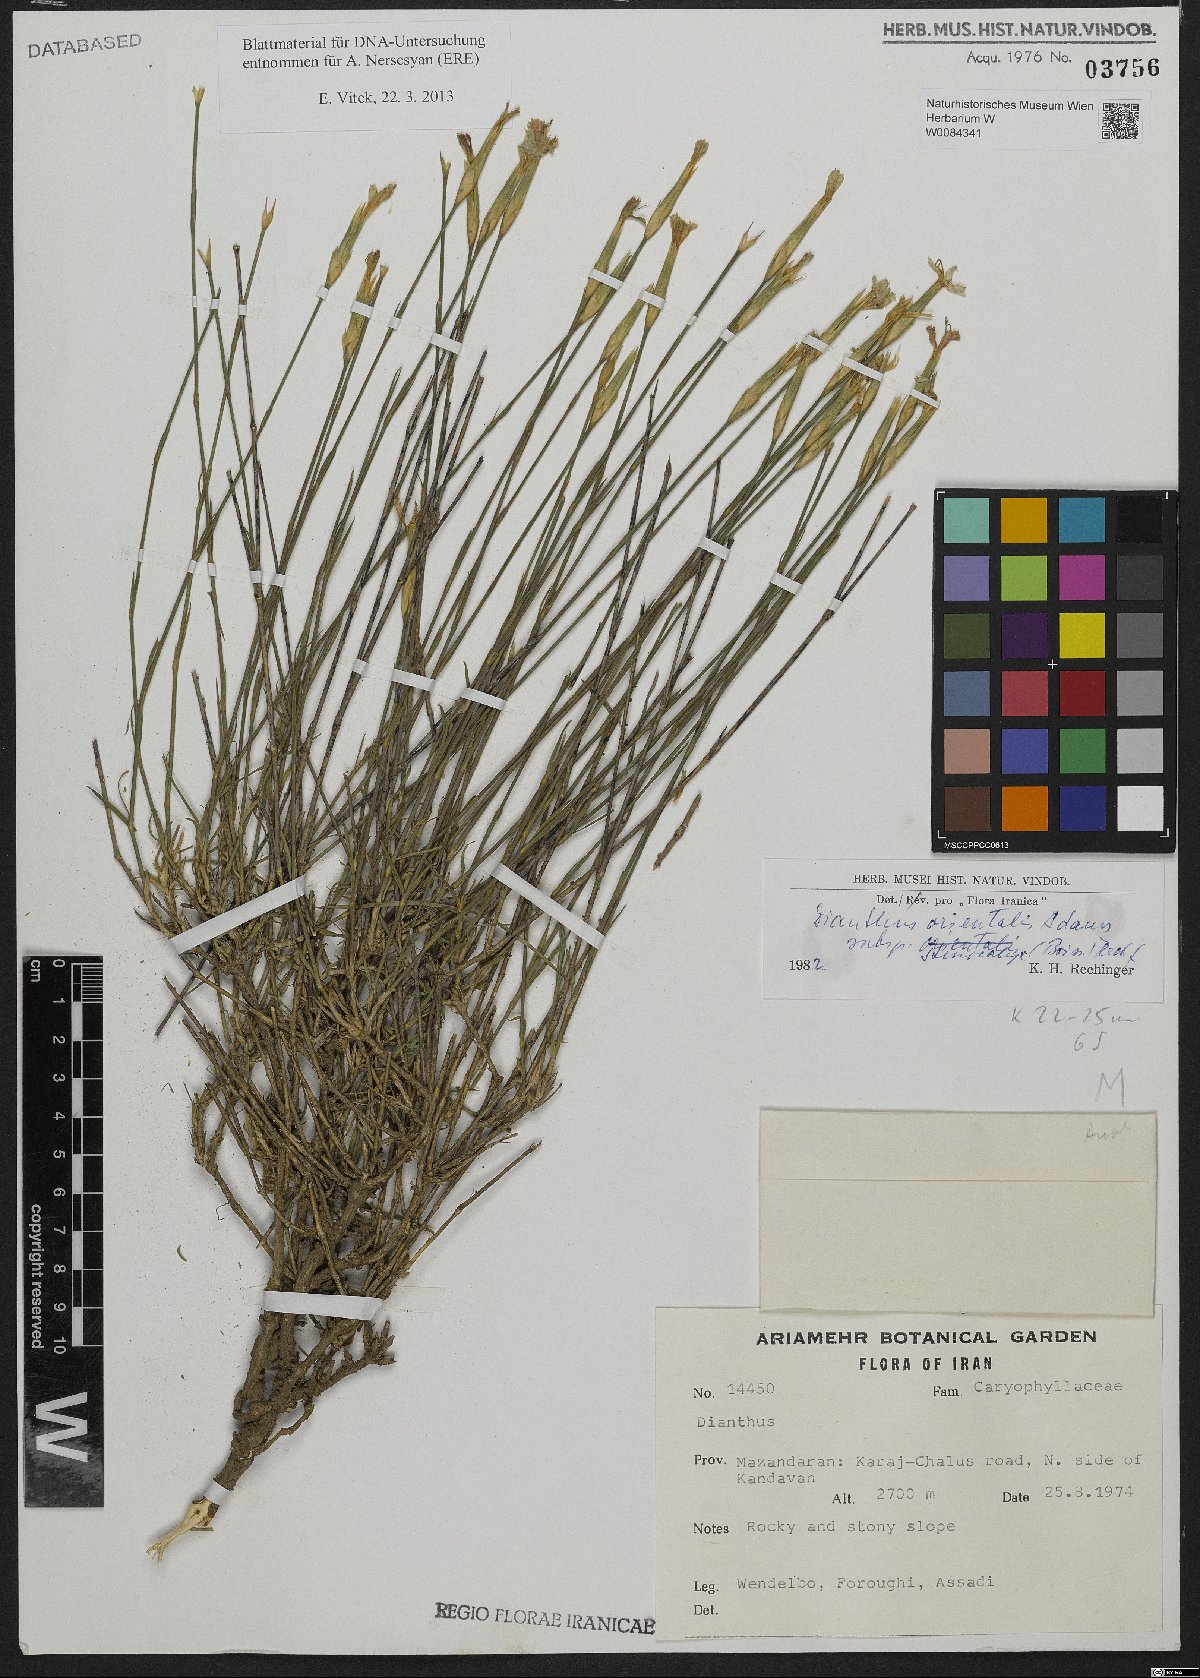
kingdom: Plantae
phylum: Tracheophyta
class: Magnoliopsida
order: Caryophyllales
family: Caryophyllaceae
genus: Dianthus
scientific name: Dianthus orientalis
